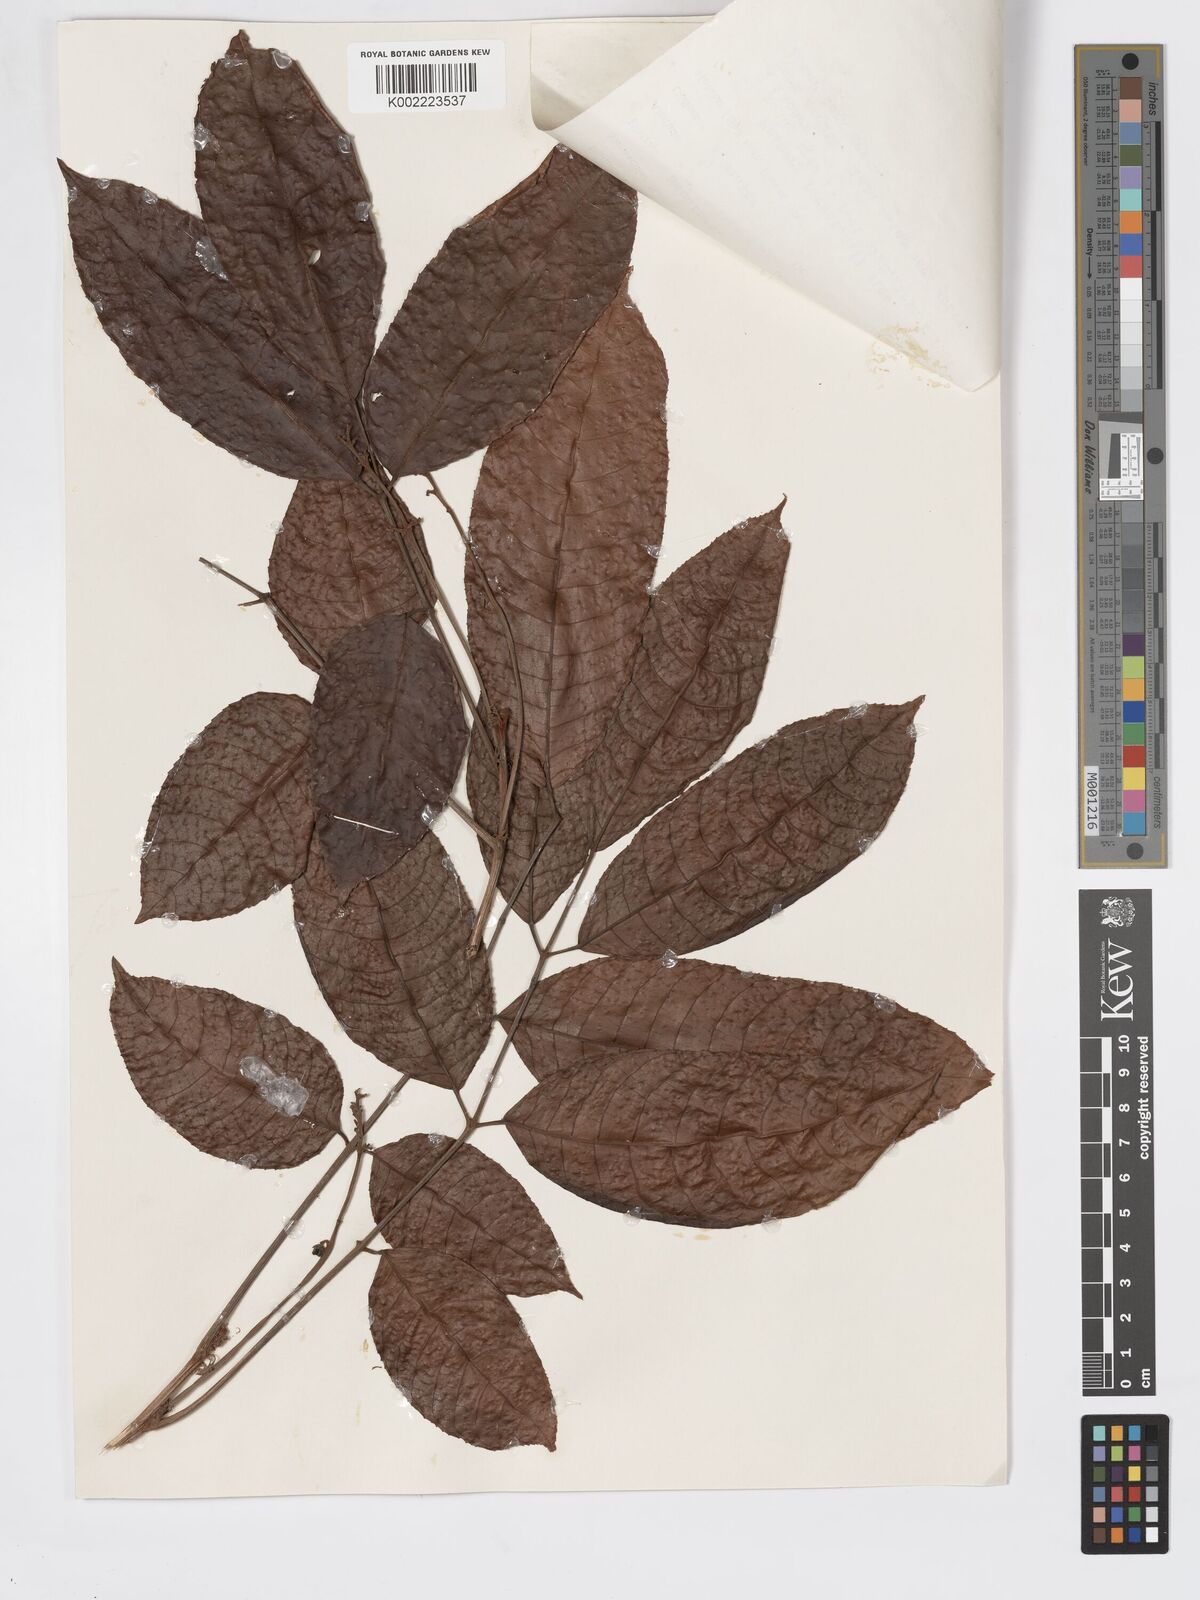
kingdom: Plantae
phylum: Tracheophyta
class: Magnoliopsida
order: Sapindales
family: Burseraceae
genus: Canarium
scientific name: Canarium denticulatum
